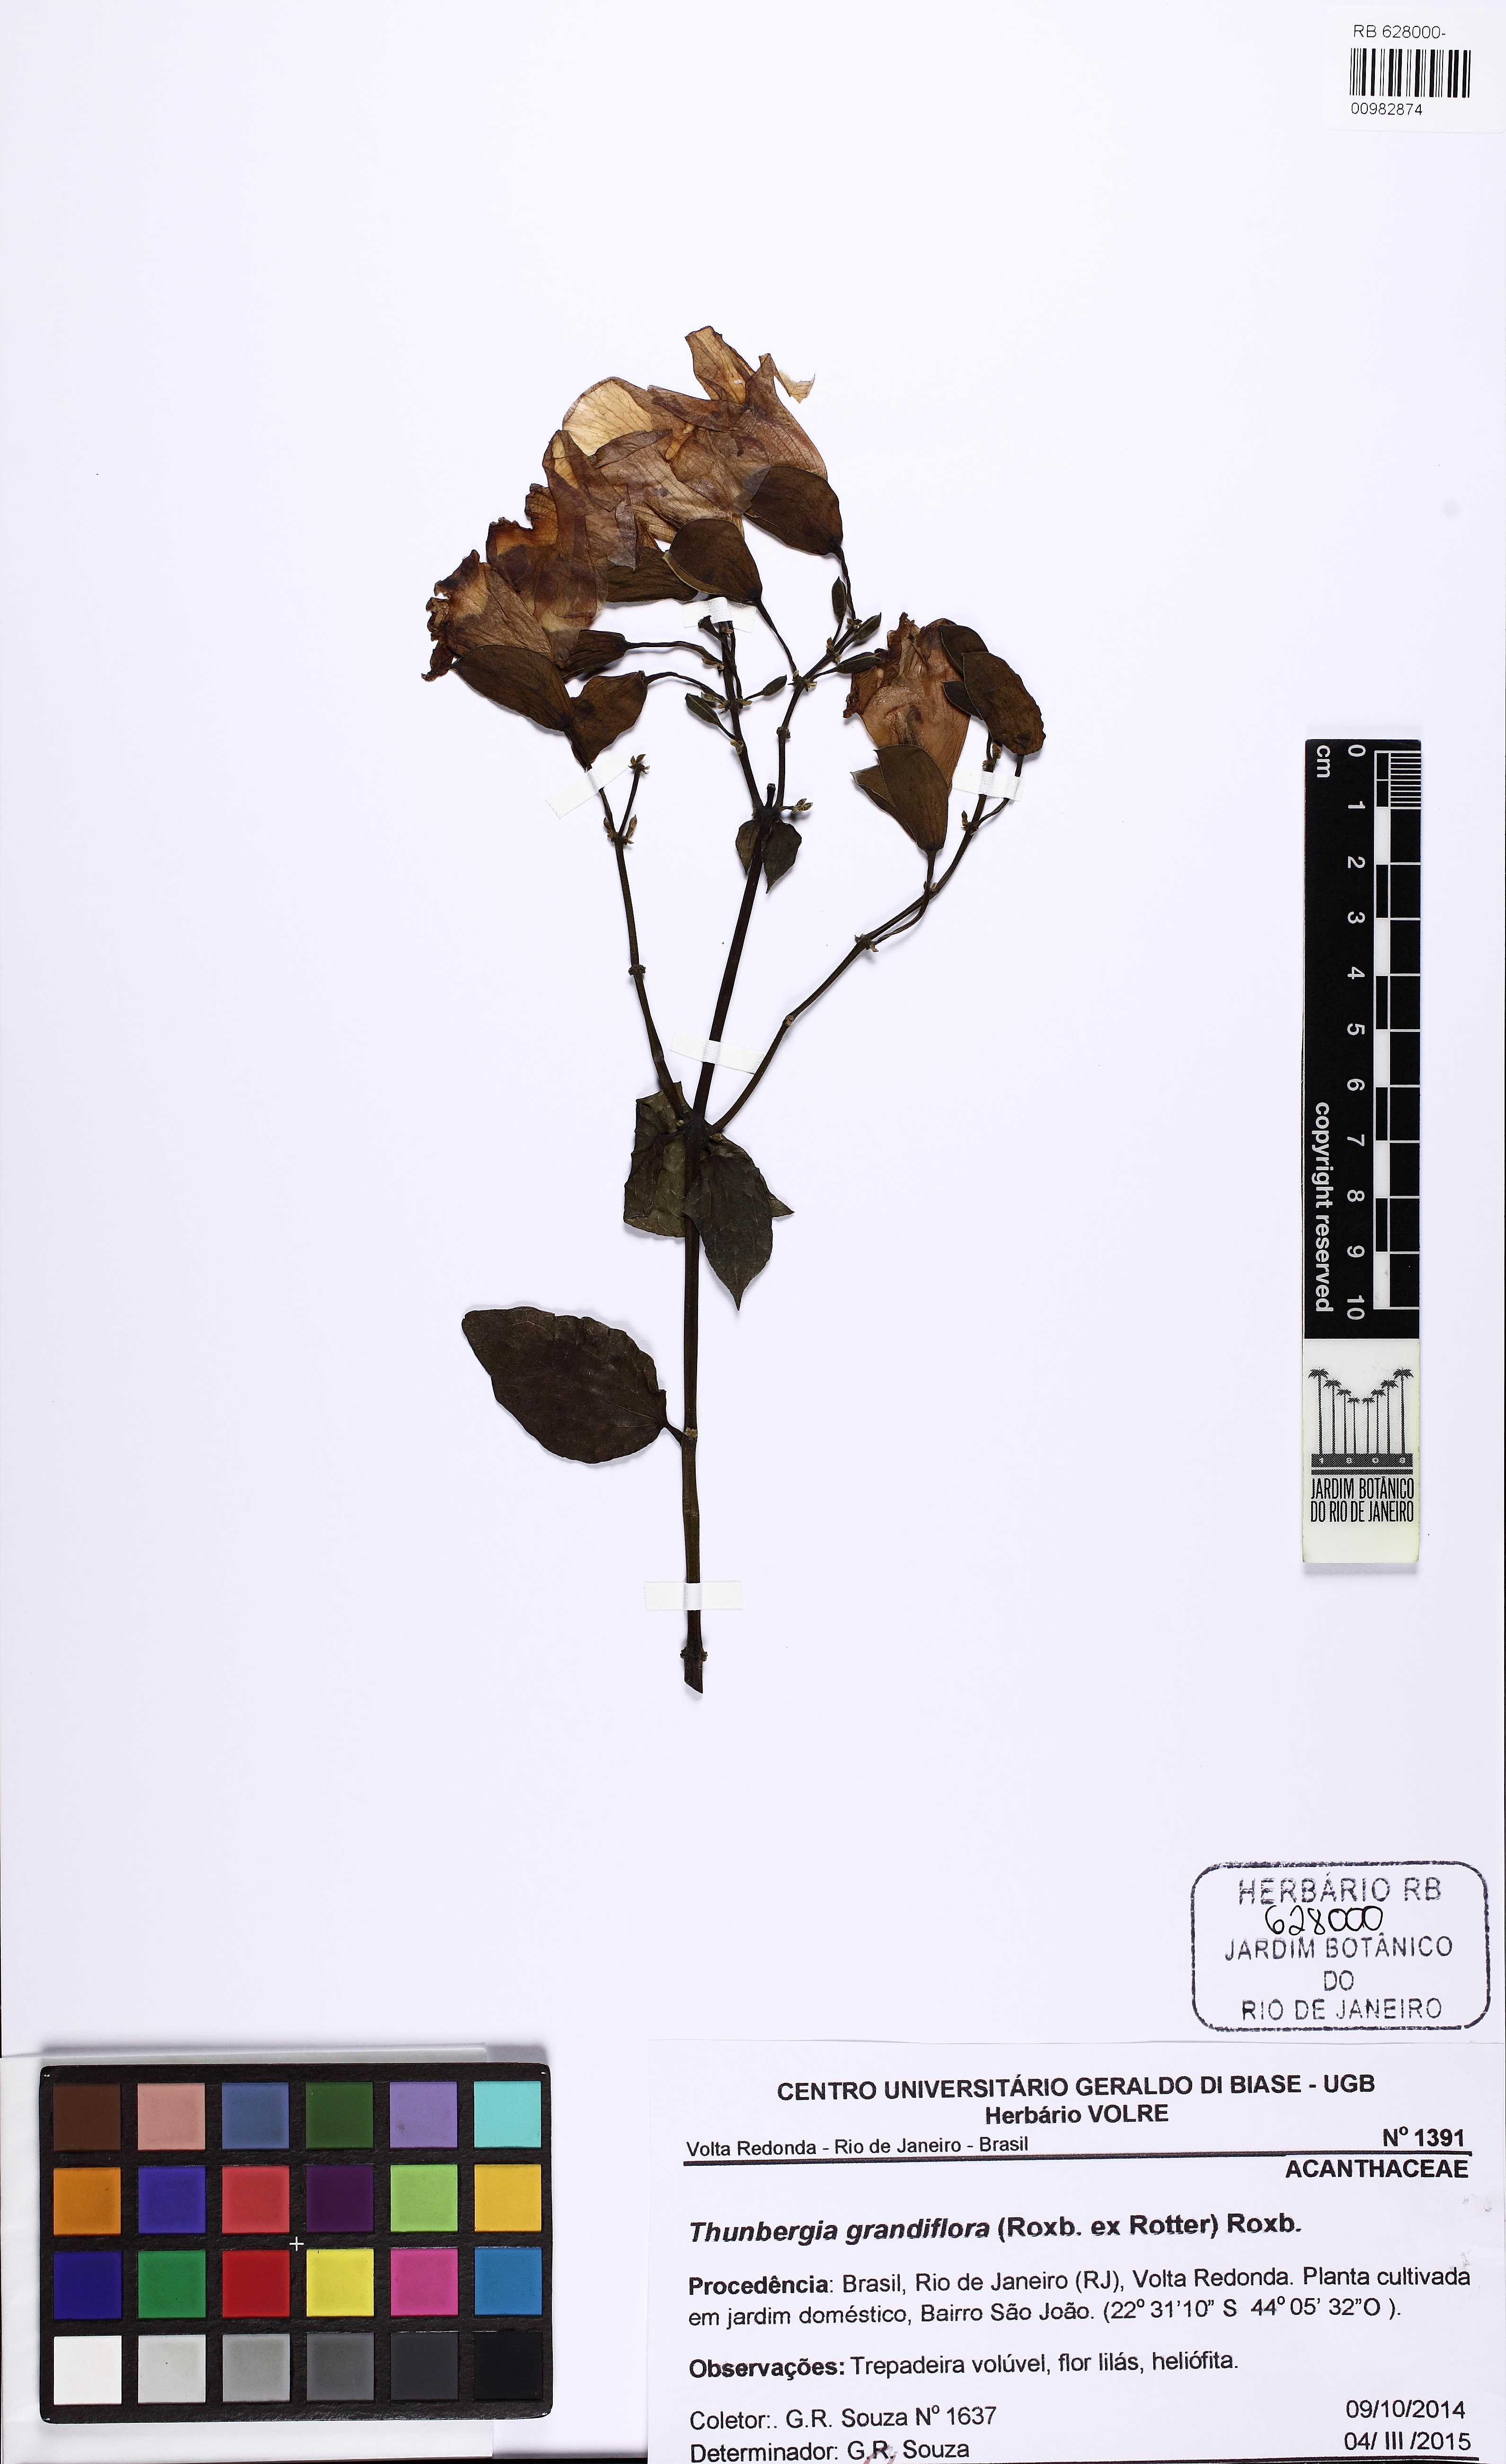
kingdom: Plantae
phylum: Tracheophyta
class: Magnoliopsida
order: Lamiales
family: Acanthaceae
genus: Thunbergia
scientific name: Thunbergia grandiflora
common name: Bengal trumpet
